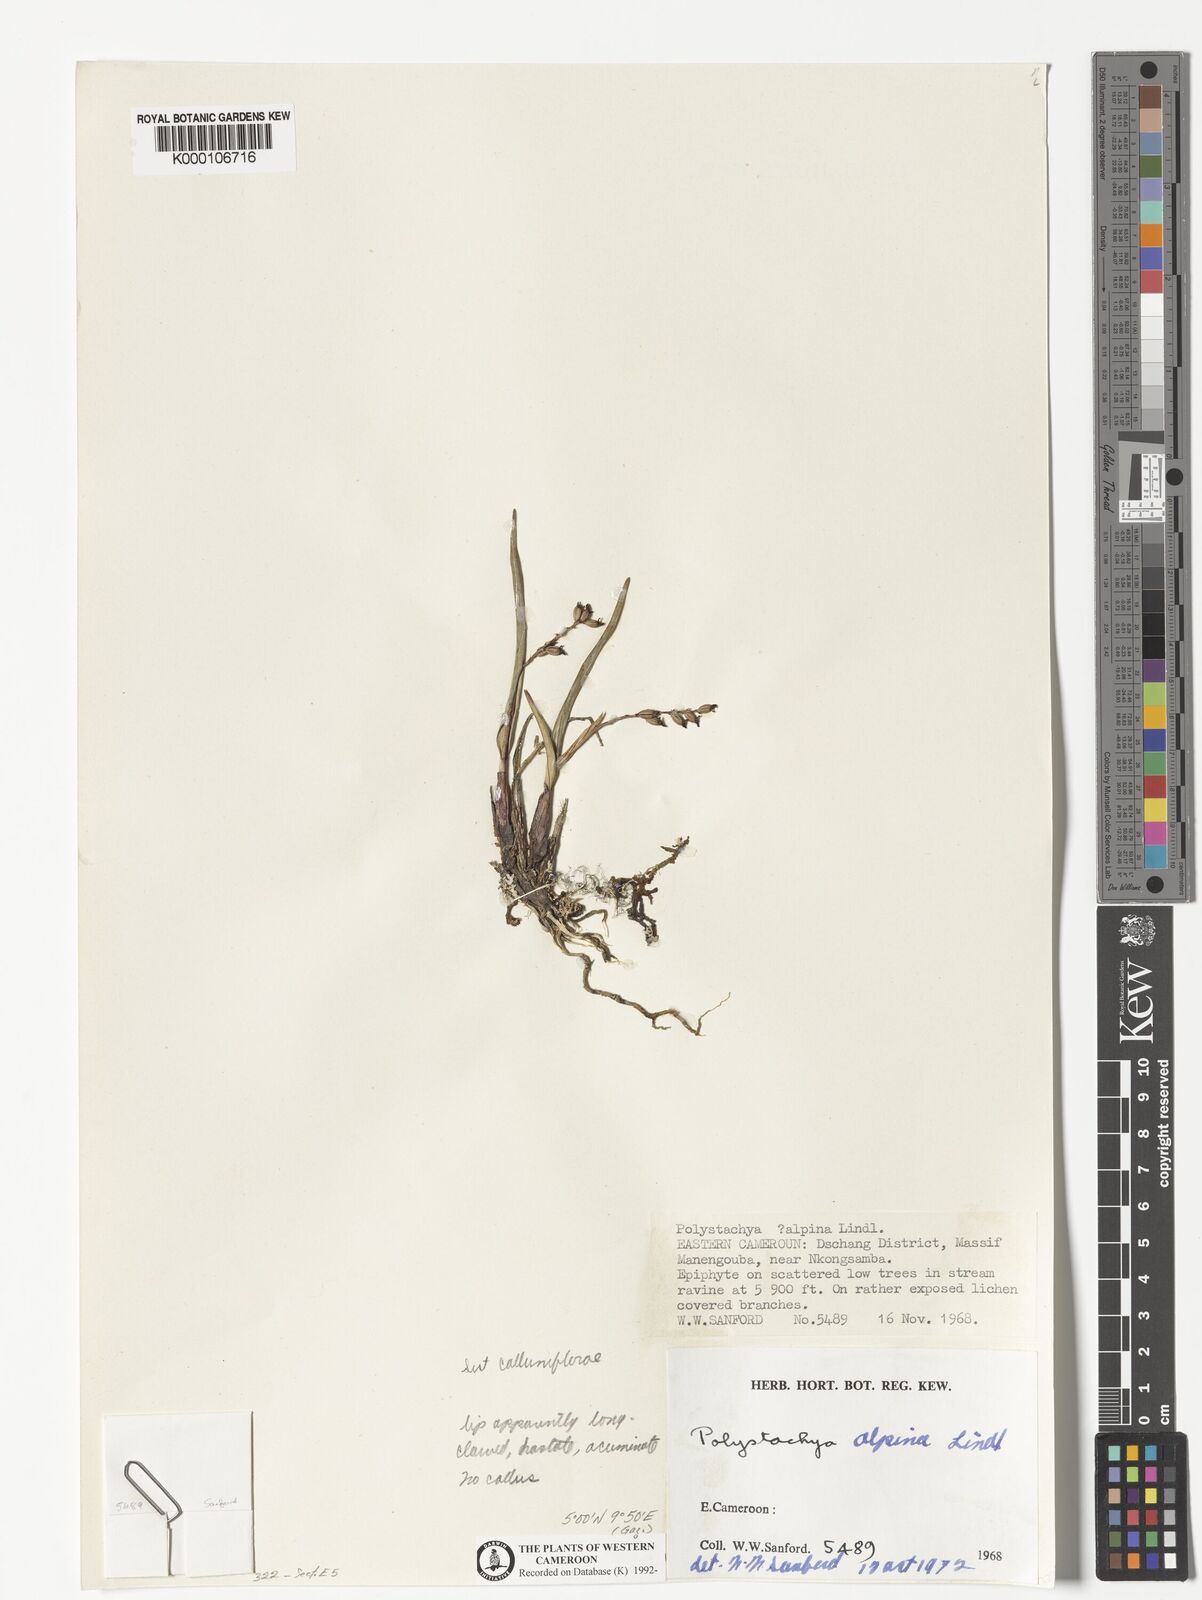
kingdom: Plantae
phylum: Tracheophyta
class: Liliopsida
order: Asparagales
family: Orchidaceae
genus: Polystachya
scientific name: Polystachya alpina
